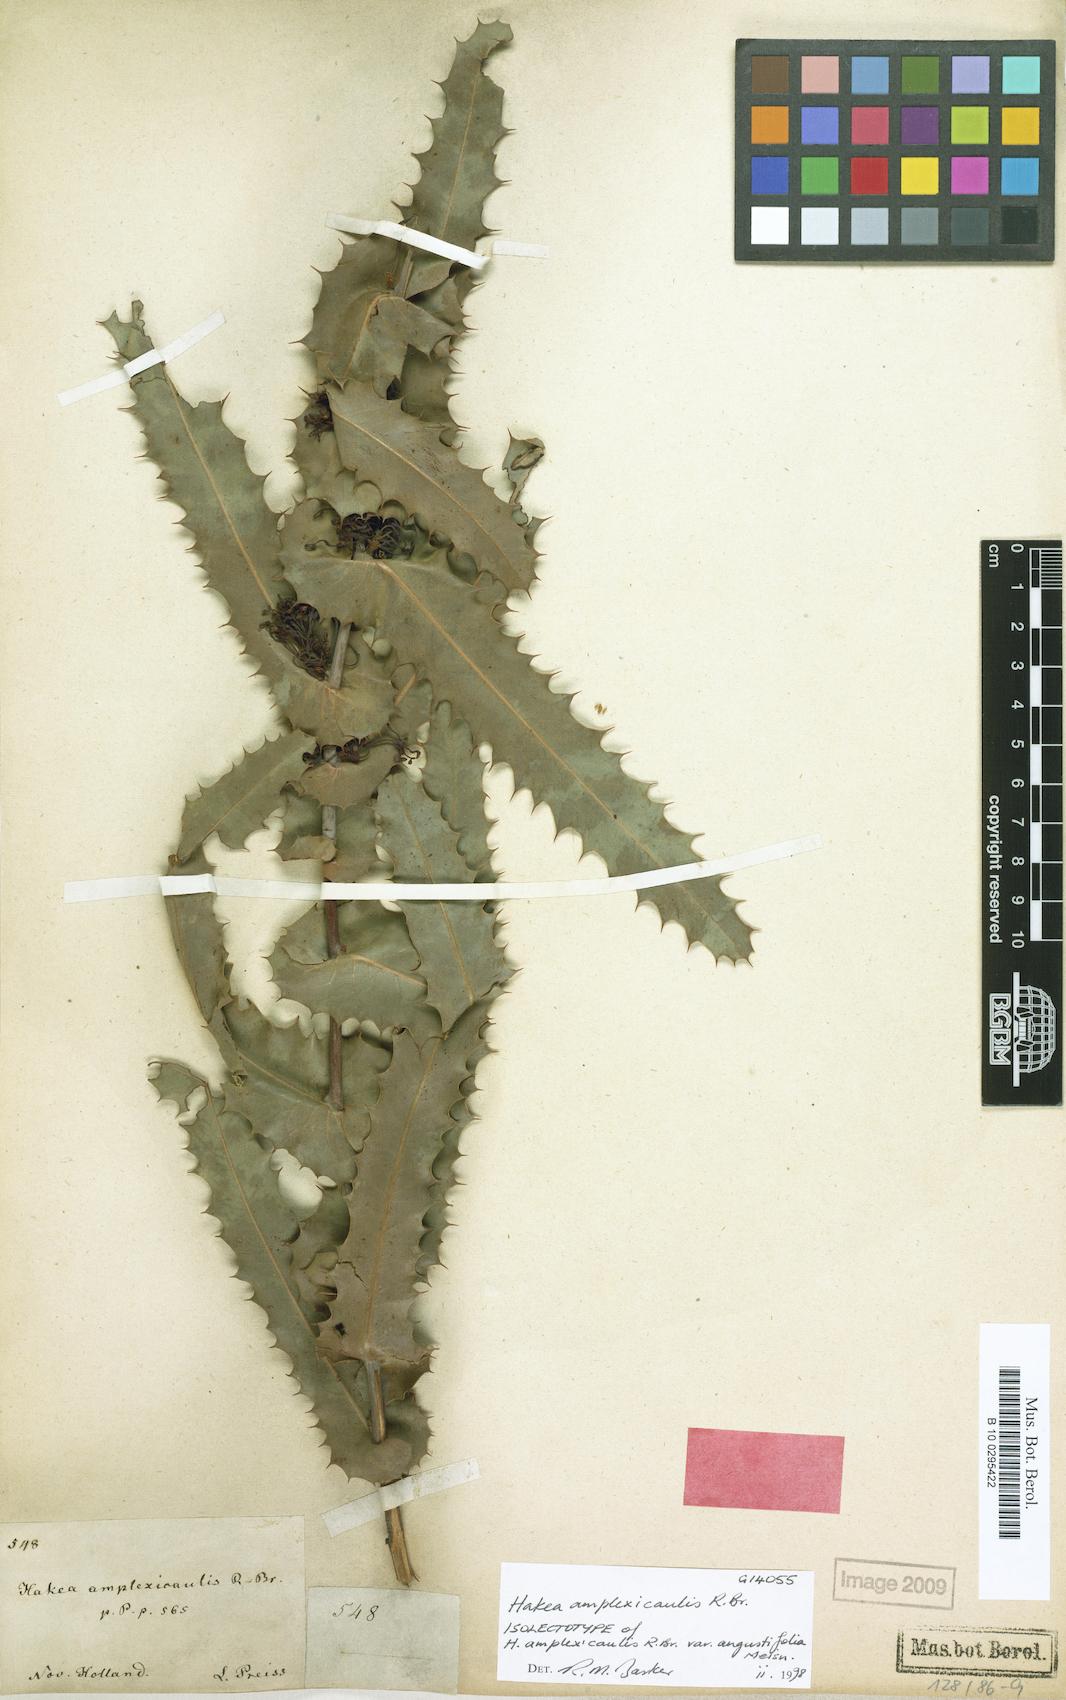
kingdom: Plantae
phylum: Tracheophyta
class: Magnoliopsida
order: Proteales
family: Proteaceae
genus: Hakea
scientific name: Hakea amplexicaulis
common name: Prickly hakea
